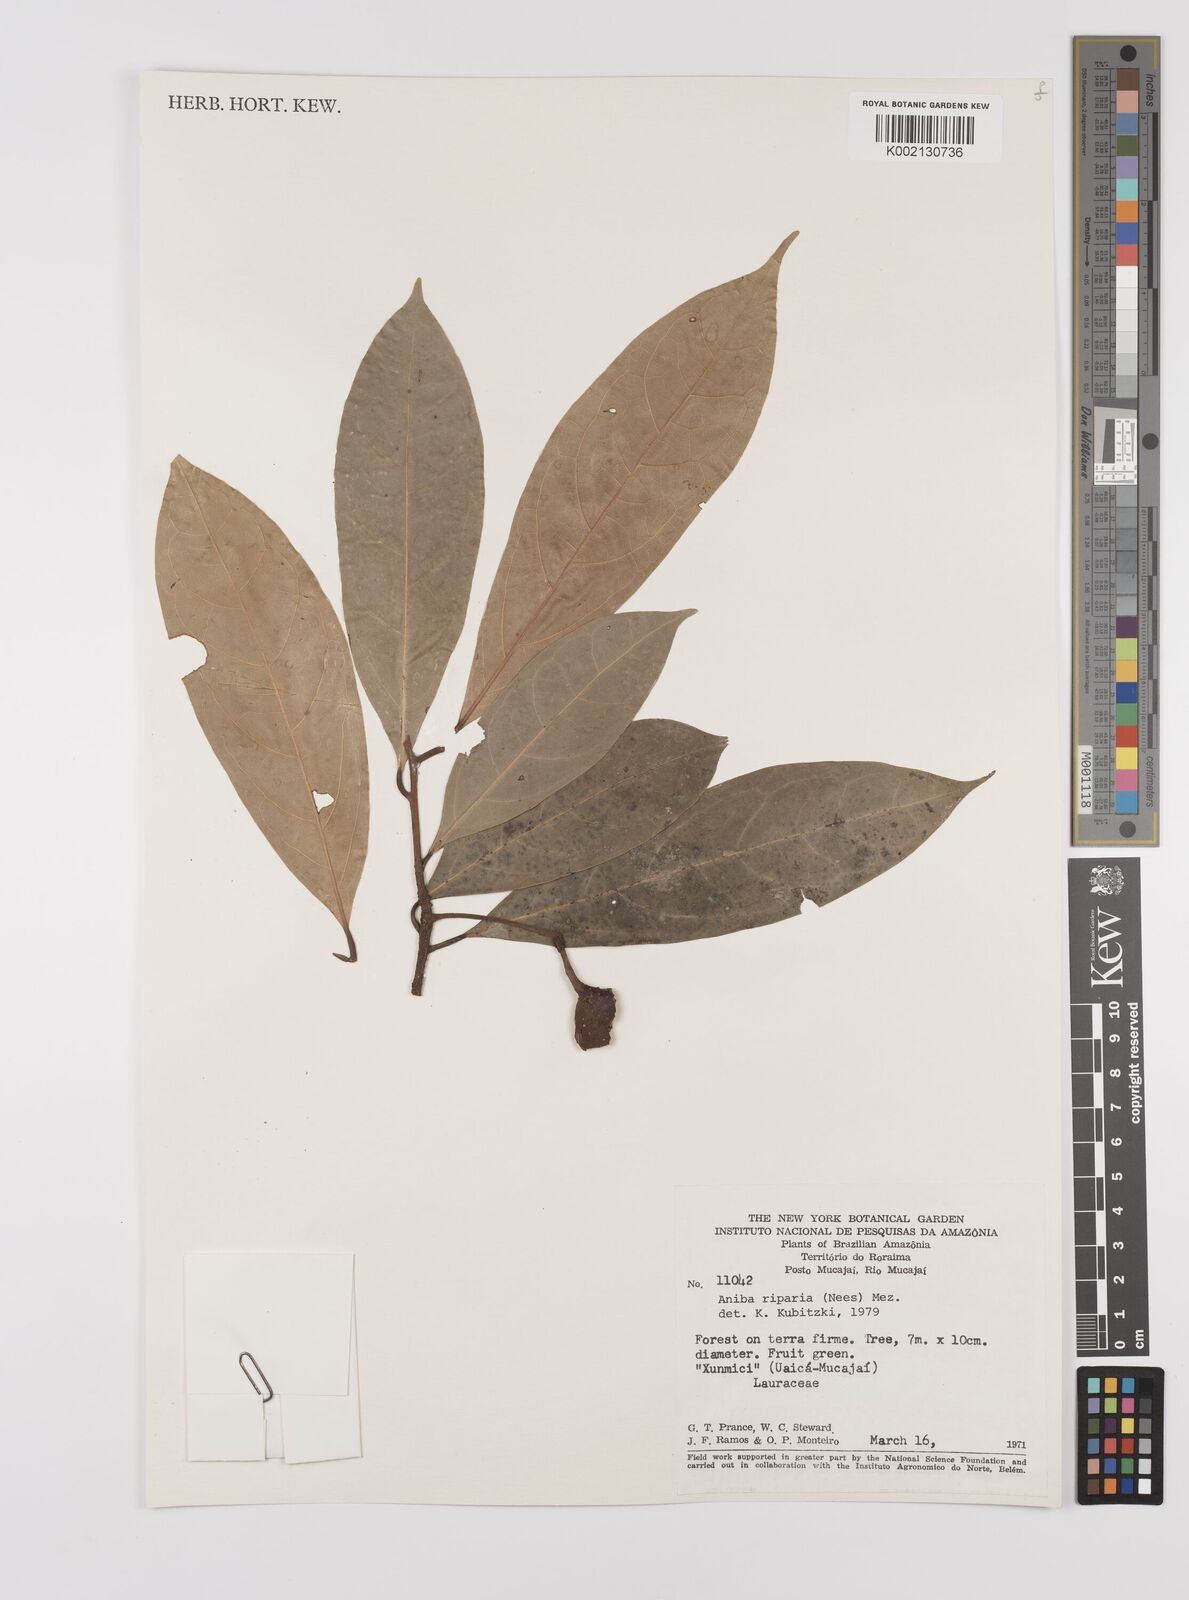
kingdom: Plantae
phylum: Tracheophyta
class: Magnoliopsida
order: Laurales
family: Lauraceae
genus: Aniba
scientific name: Aniba riparia
